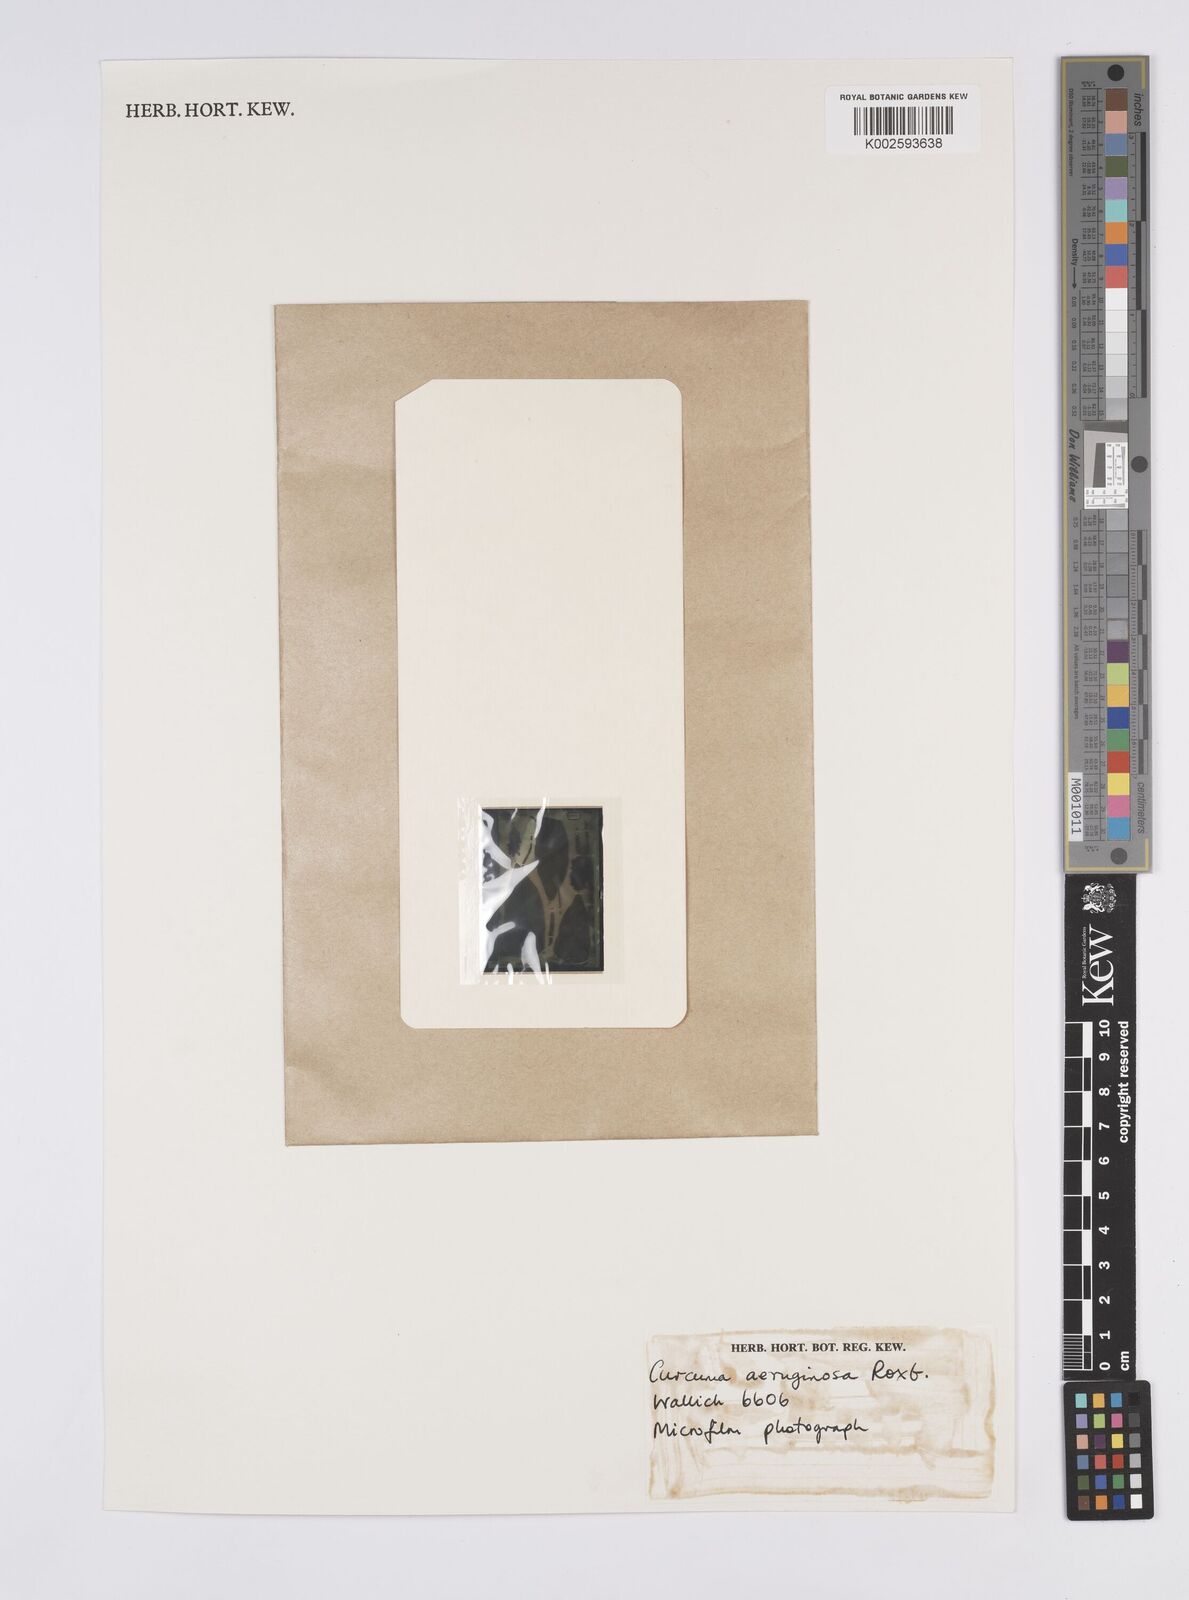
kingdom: Plantae
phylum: Tracheophyta
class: Liliopsida
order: Zingiberales
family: Zingiberaceae
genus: Curcuma
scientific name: Curcuma aeruginosa
